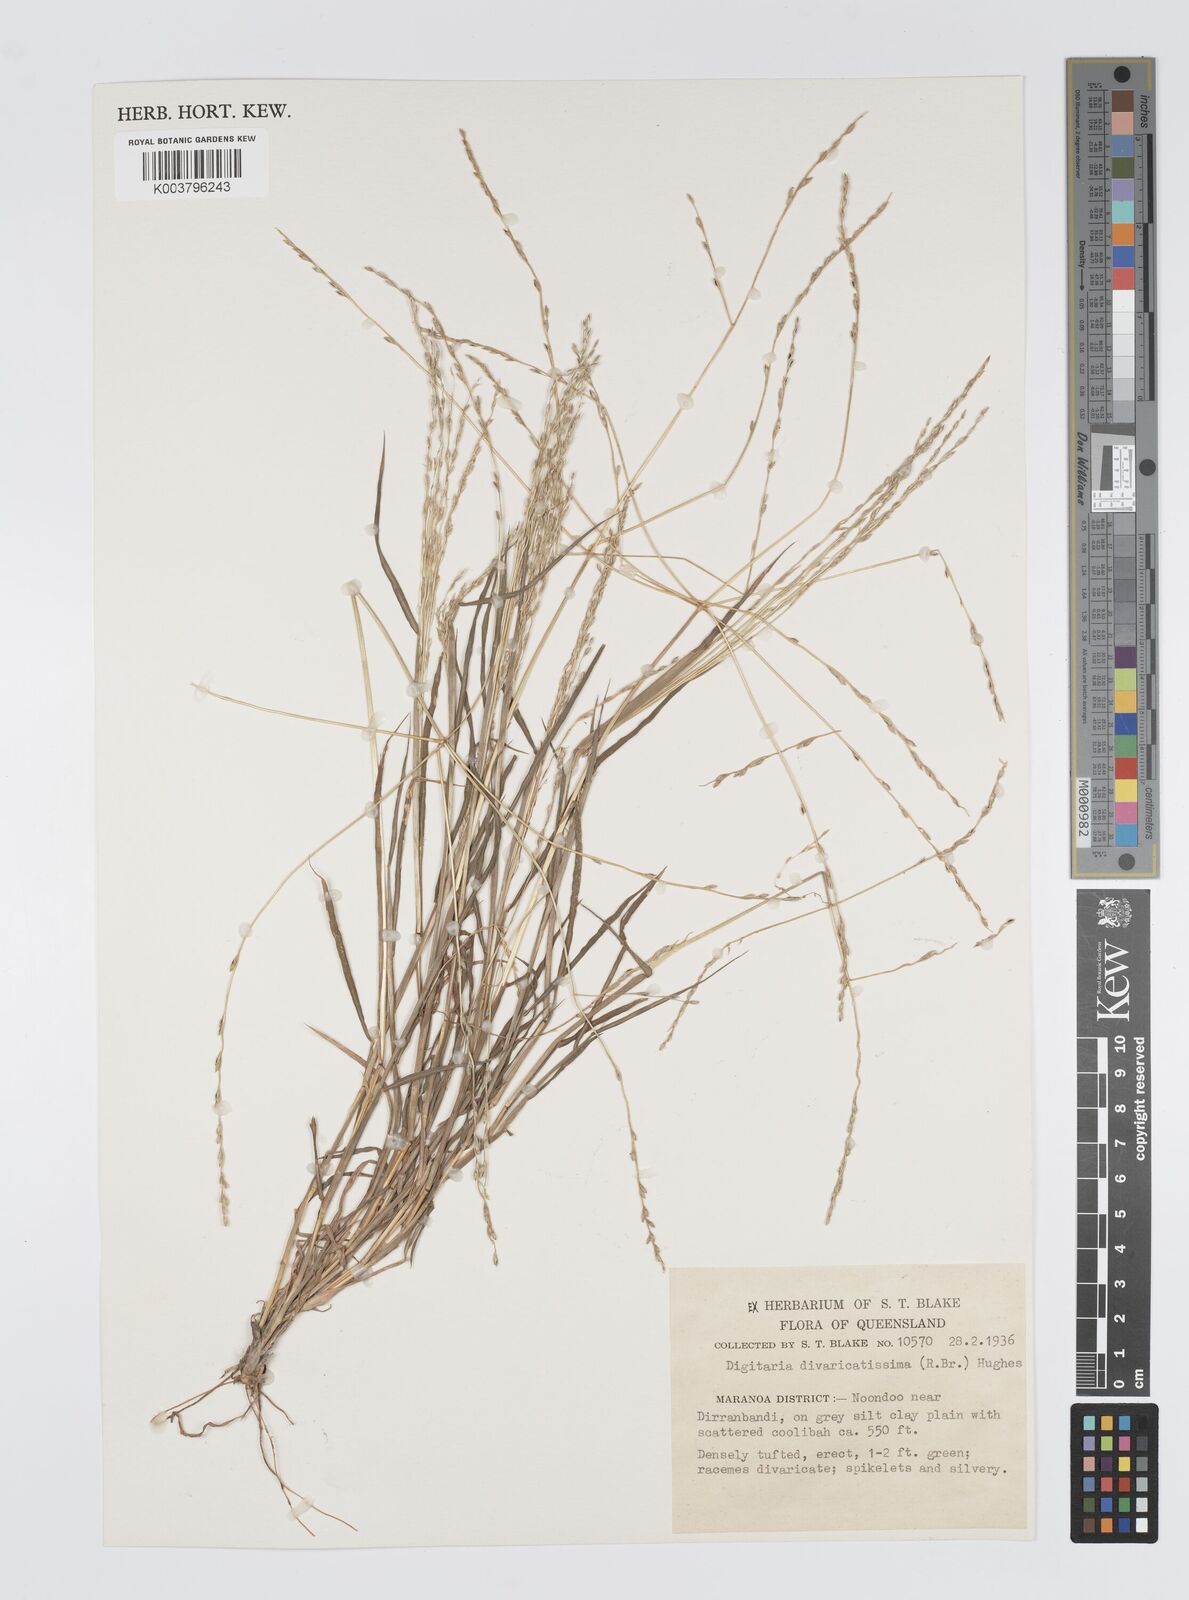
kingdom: Plantae
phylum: Tracheophyta
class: Liliopsida
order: Poales
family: Poaceae
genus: Digitaria
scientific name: Digitaria divaricatissima
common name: Crabgrass
